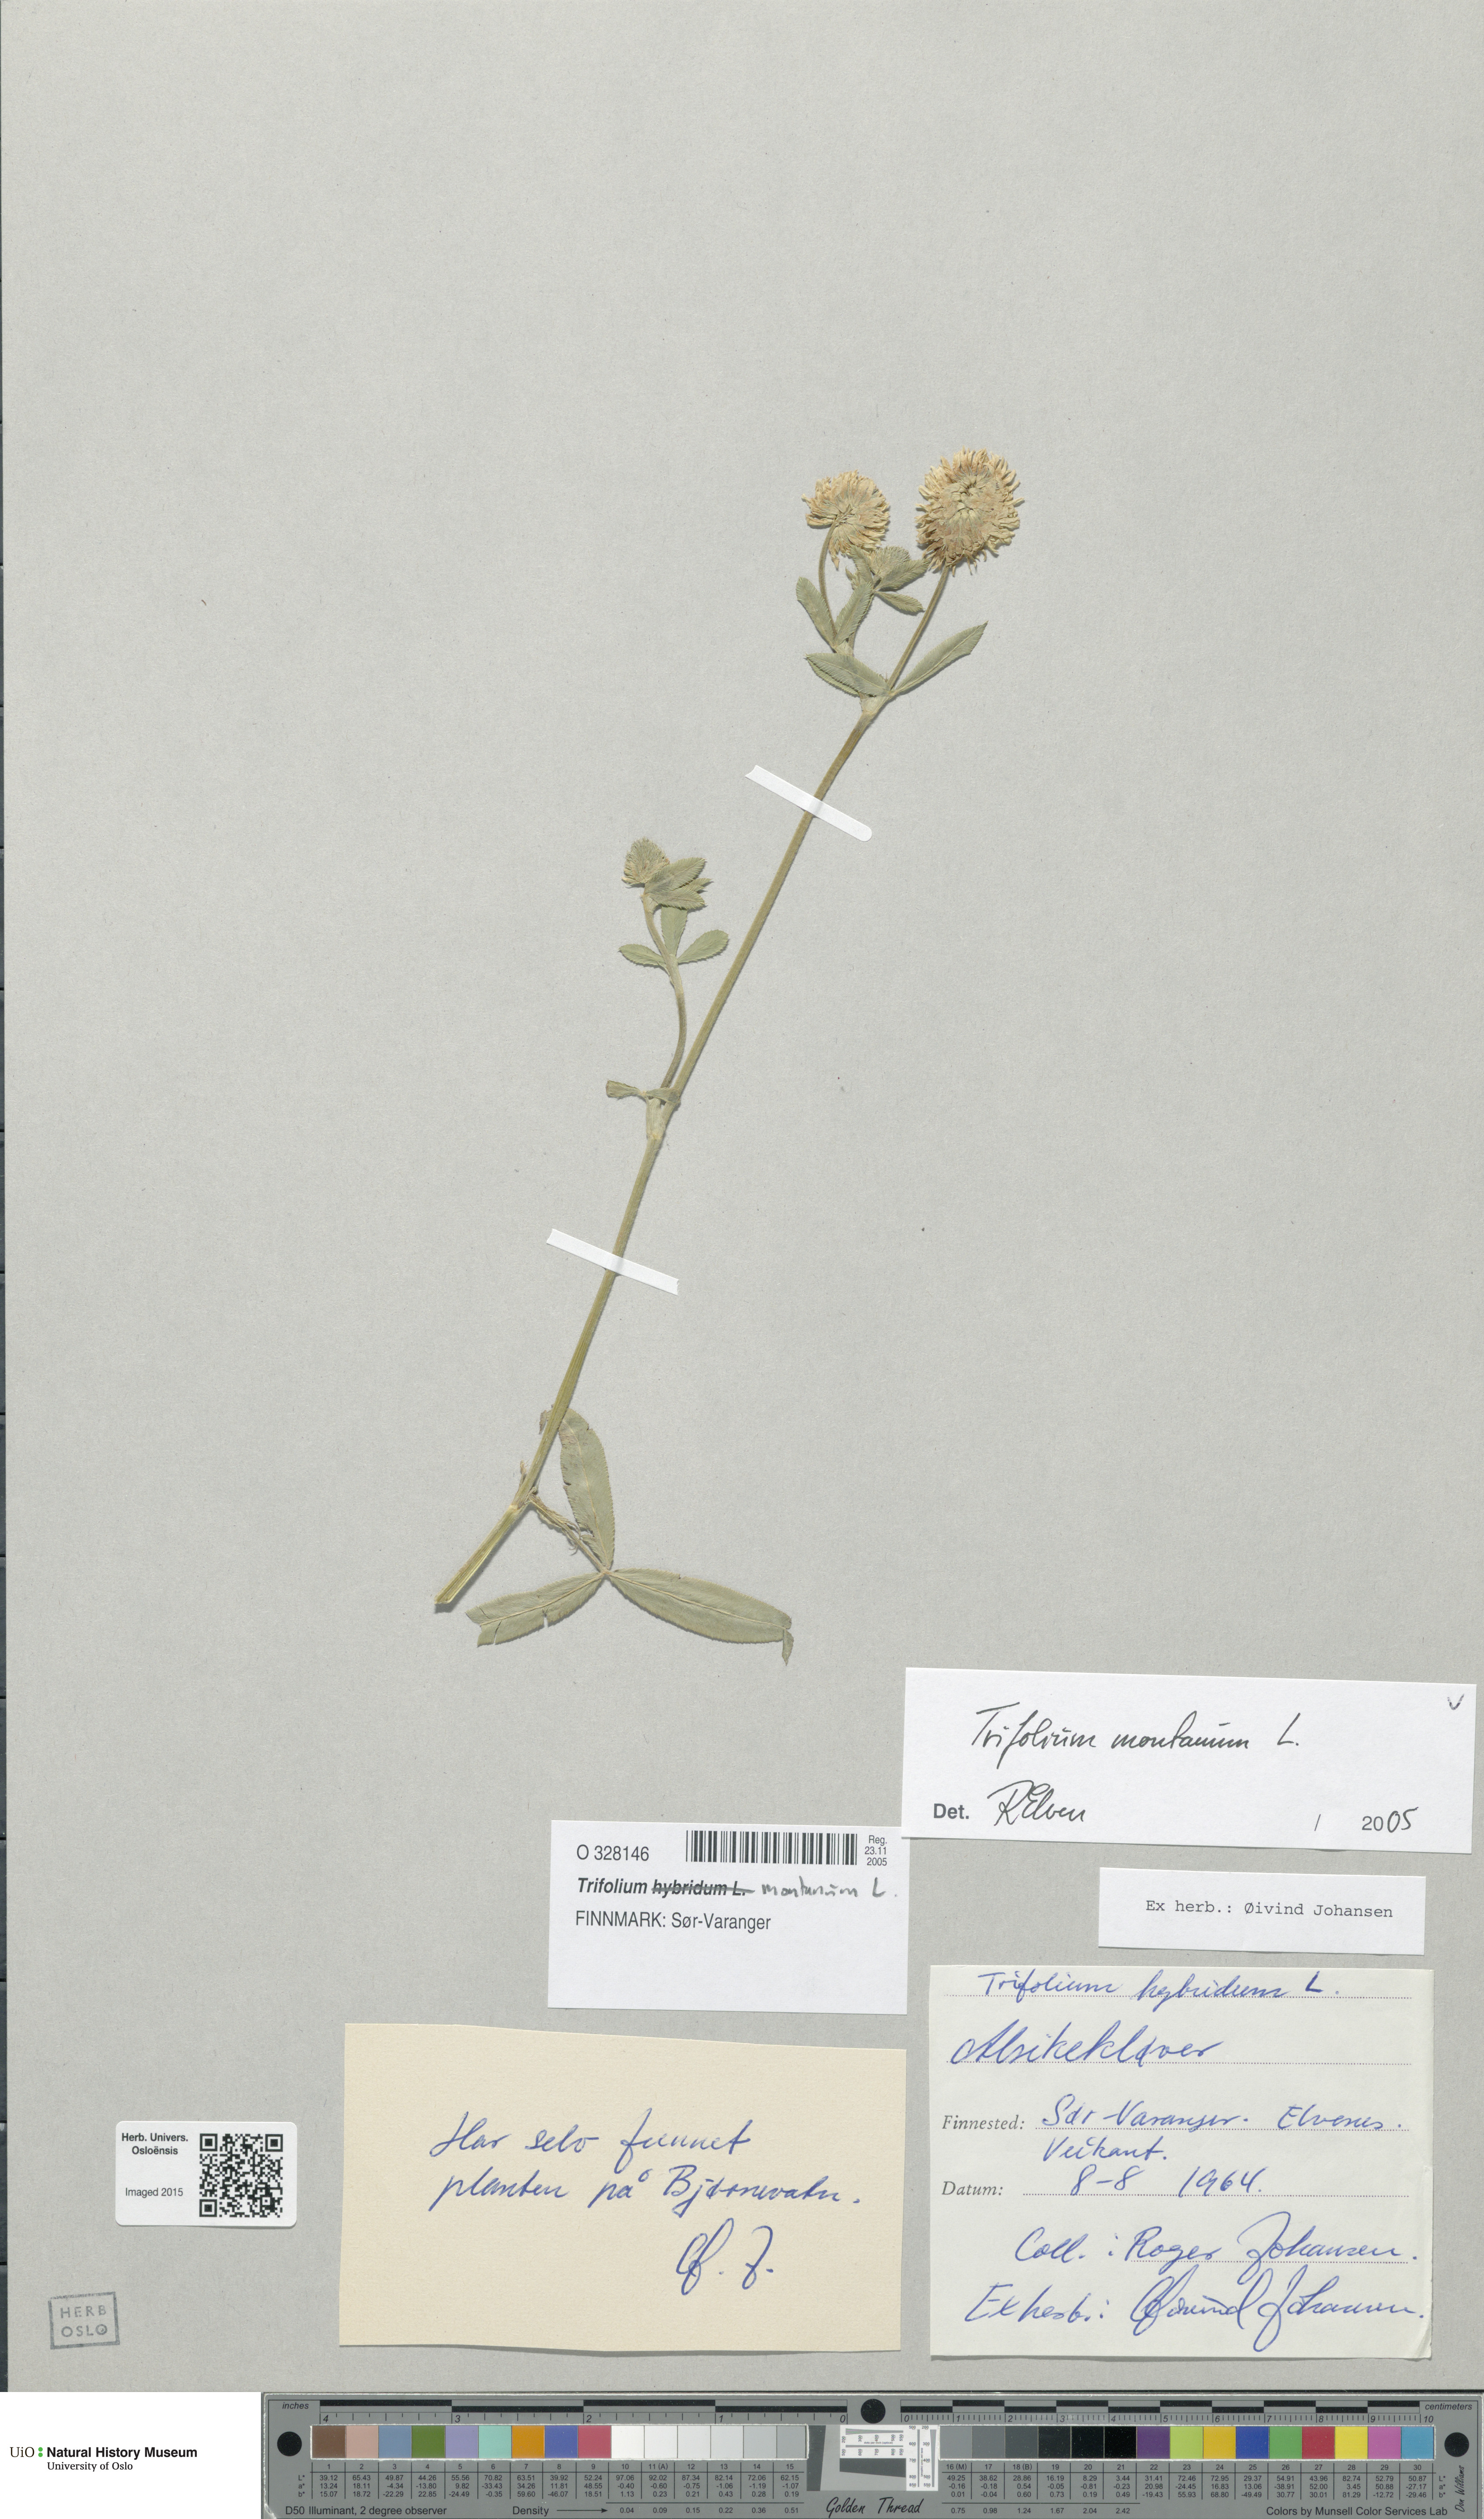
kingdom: Plantae
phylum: Tracheophyta
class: Magnoliopsida
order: Fabales
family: Fabaceae
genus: Trifolium
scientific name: Trifolium montanum
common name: Mountain clover
